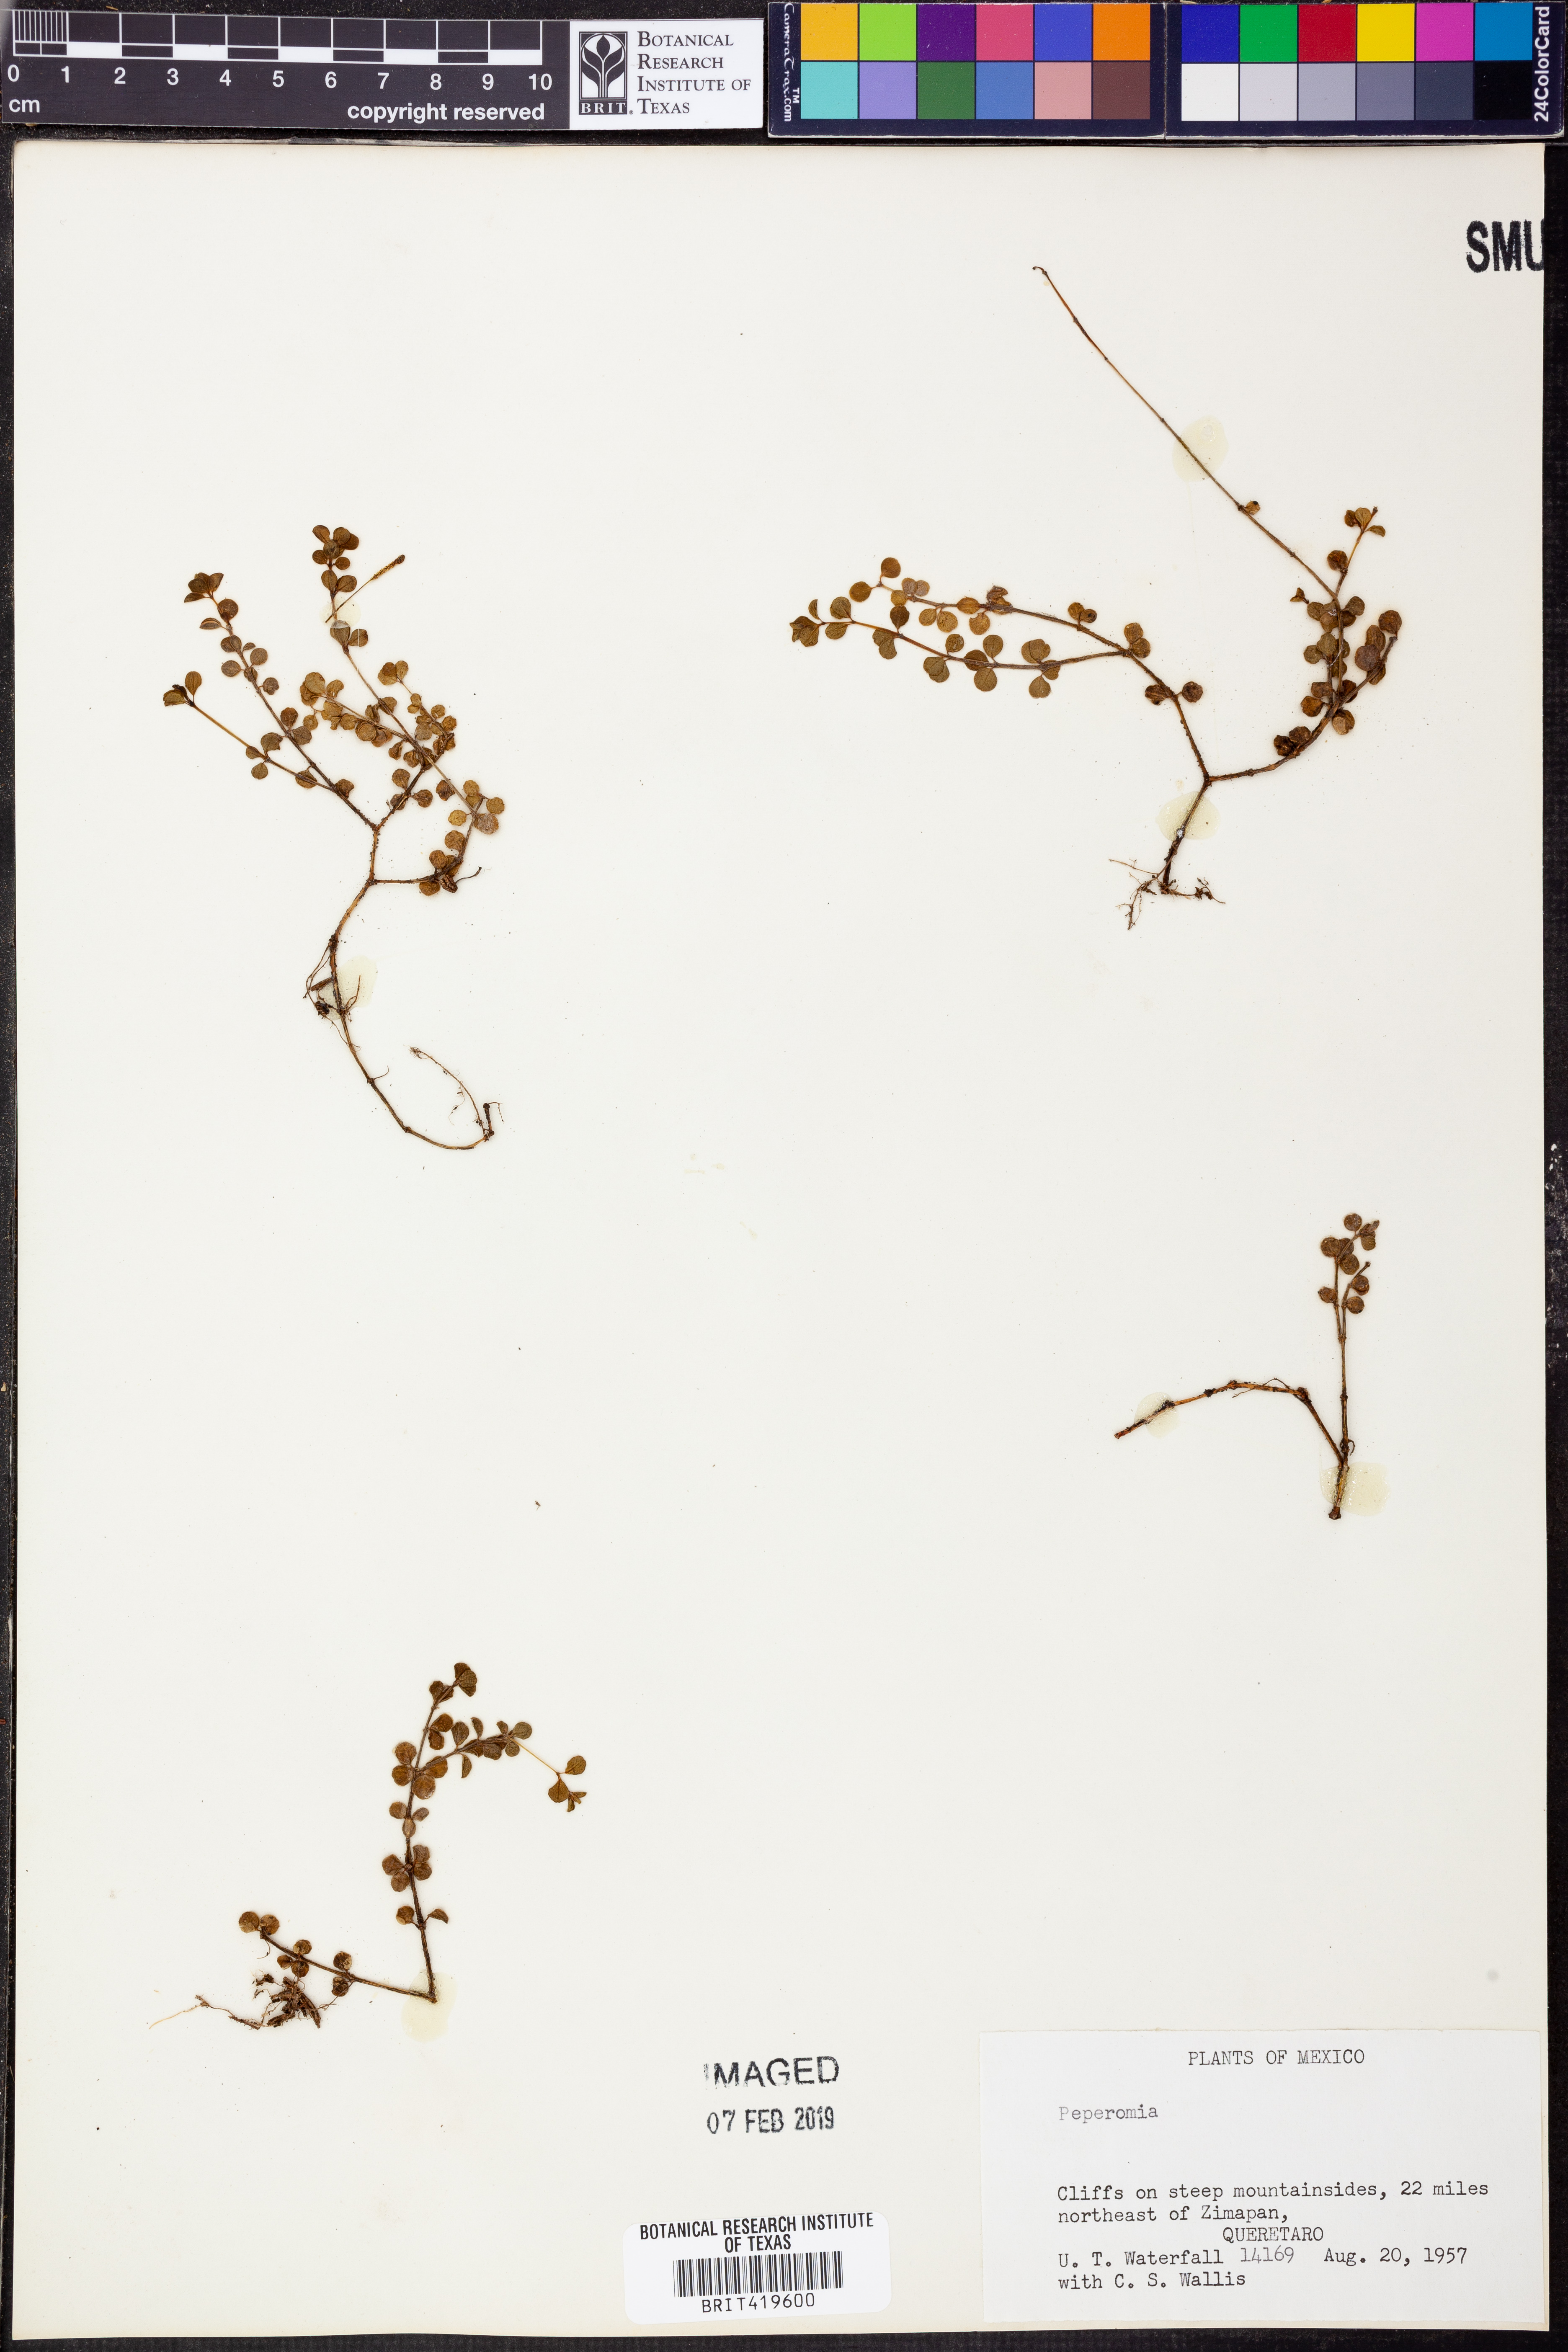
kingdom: Plantae
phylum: Tracheophyta
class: Magnoliopsida
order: Piperales
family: Piperaceae
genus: Peperomia
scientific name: Peperomia
